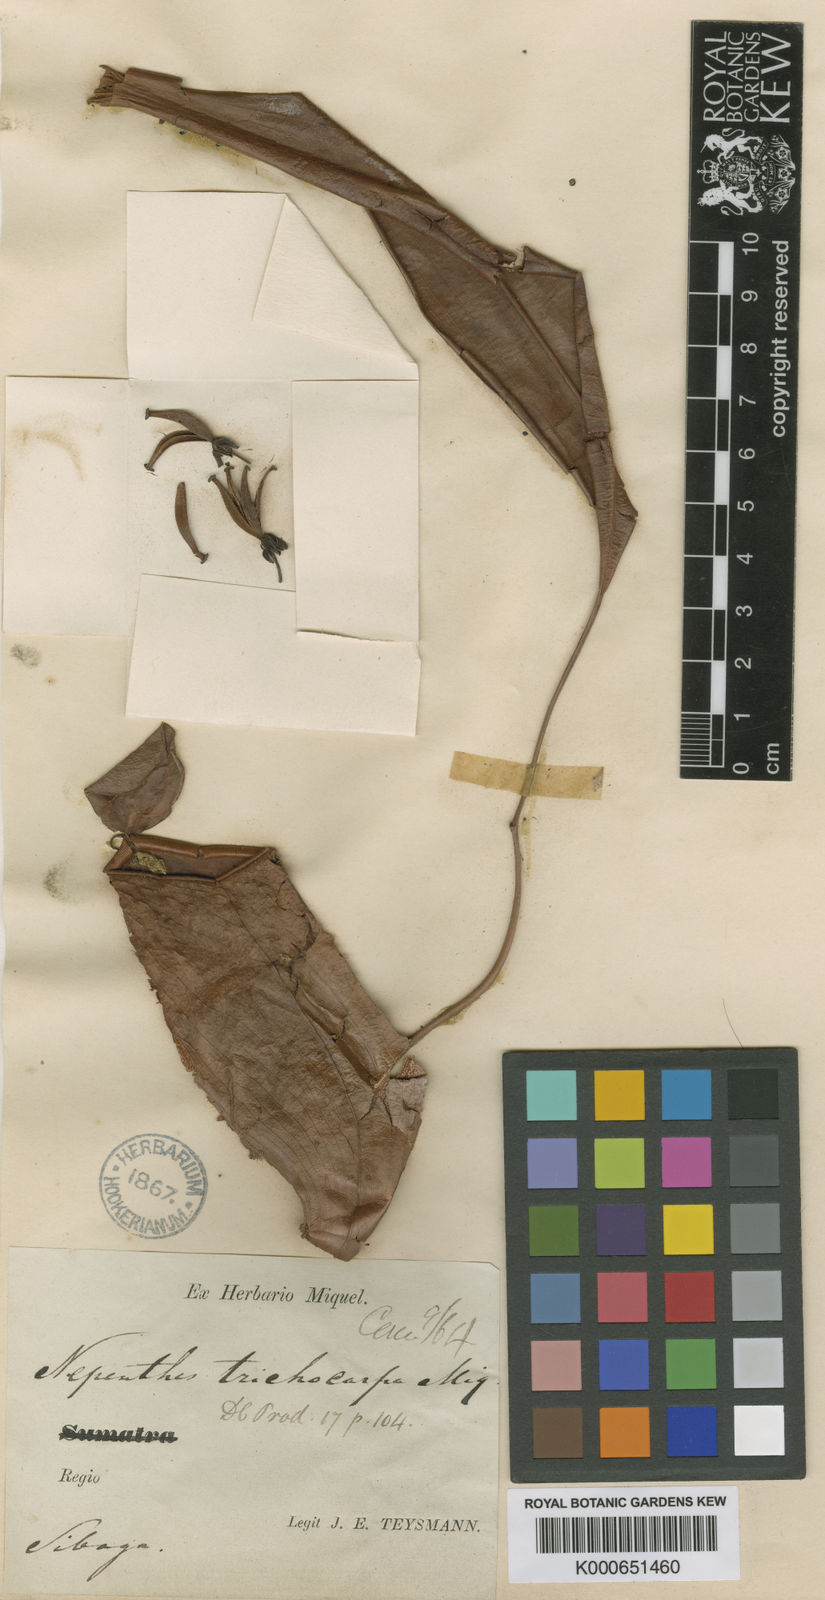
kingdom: Plantae
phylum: Tracheophyta
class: Magnoliopsida
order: Caryophyllales
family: Nepenthaceae
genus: Nepenthes
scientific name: Nepenthes trichocarpa
